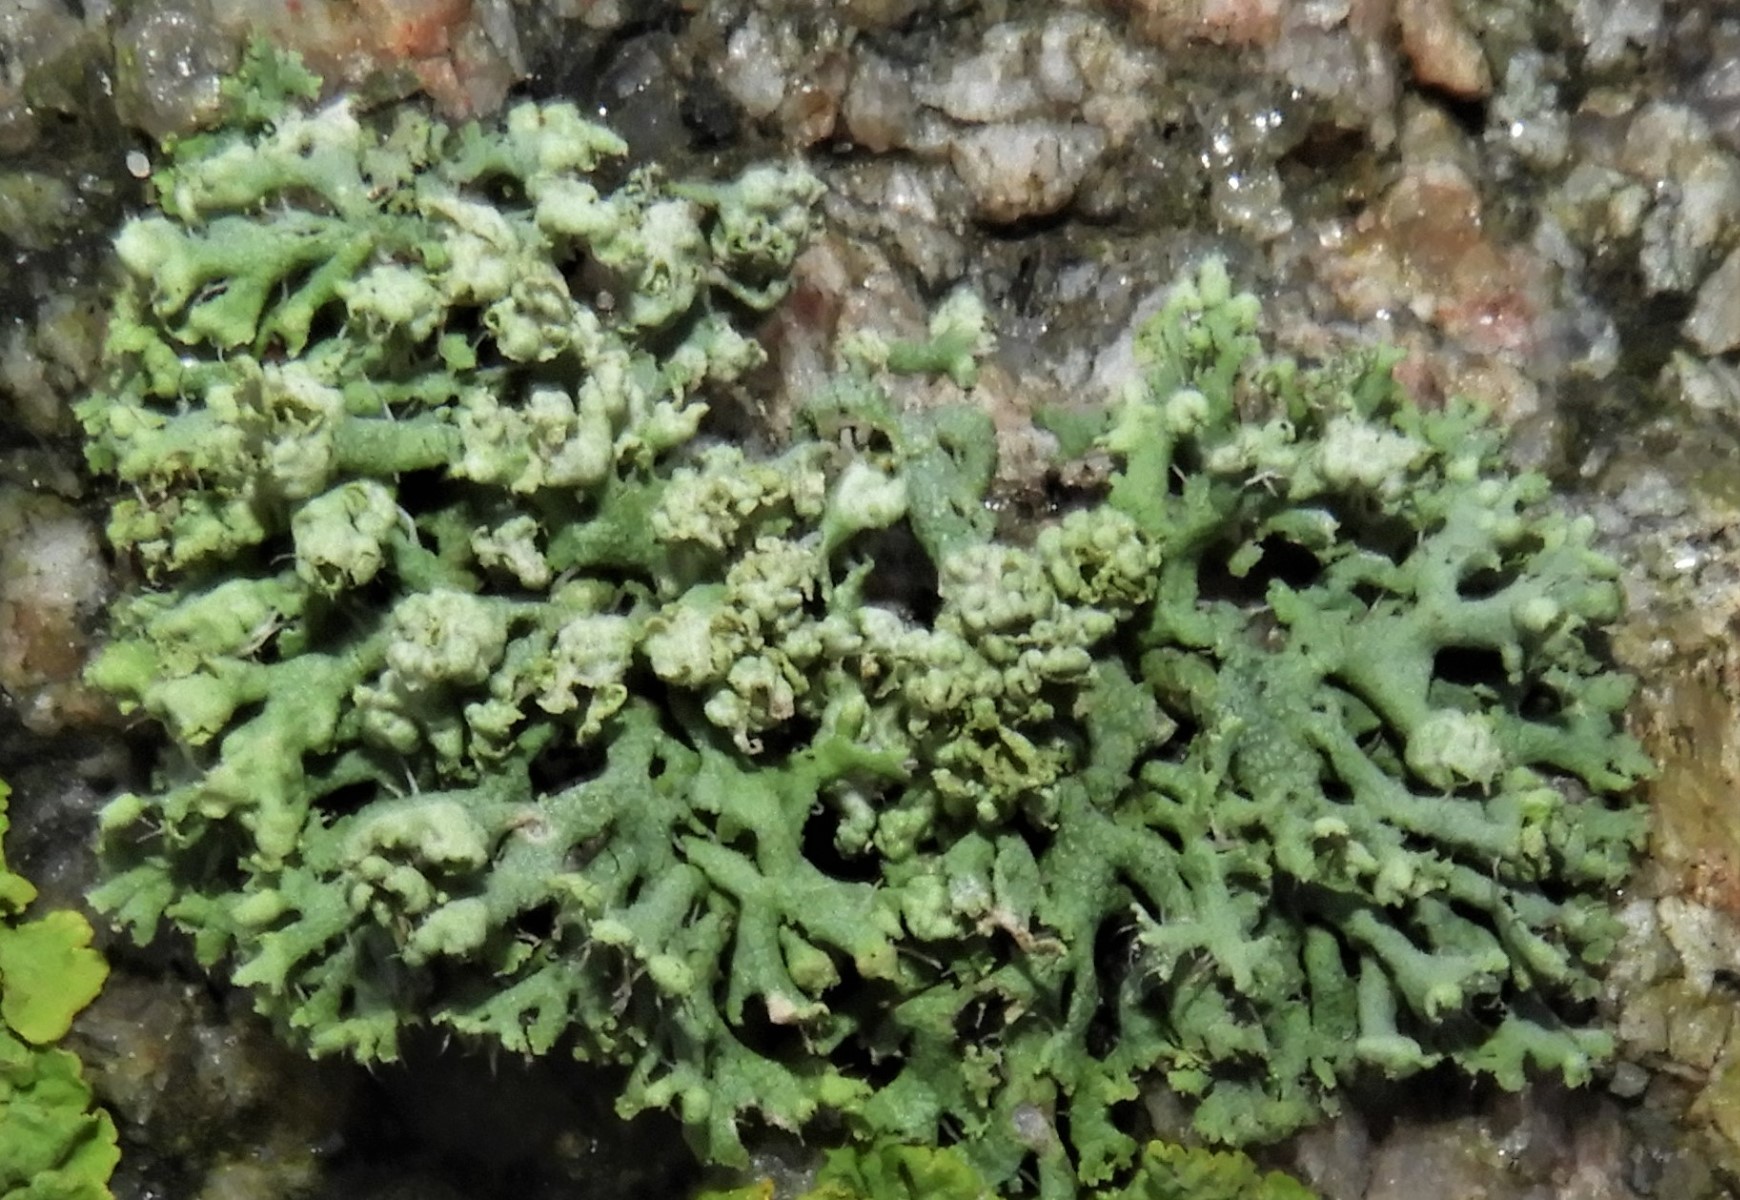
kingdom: Fungi
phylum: Ascomycota
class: Lecanoromycetes
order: Caliciales
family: Physciaceae
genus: Physcia
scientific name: Physcia adscendens
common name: hætte-rosetlav
